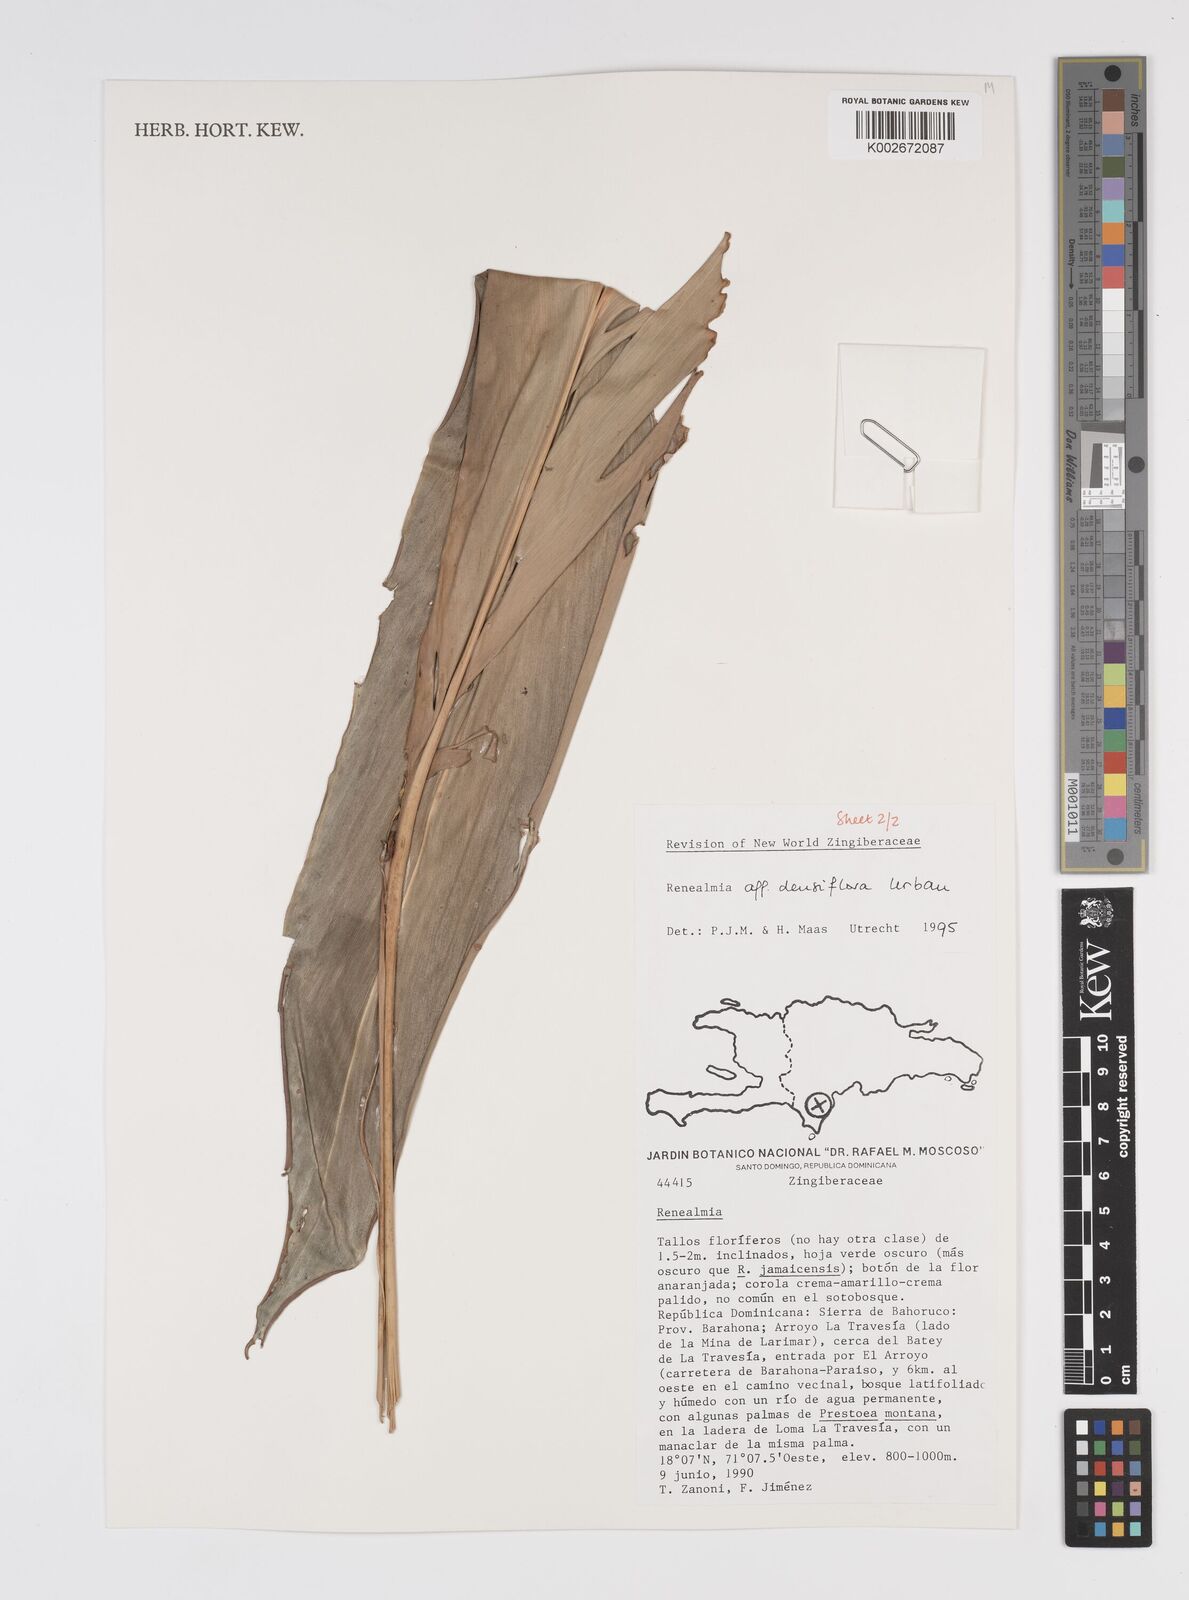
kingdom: Plantae
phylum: Tracheophyta
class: Liliopsida
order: Zingiberales
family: Zingiberaceae
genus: Renealmia
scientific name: Renealmia densiflora
